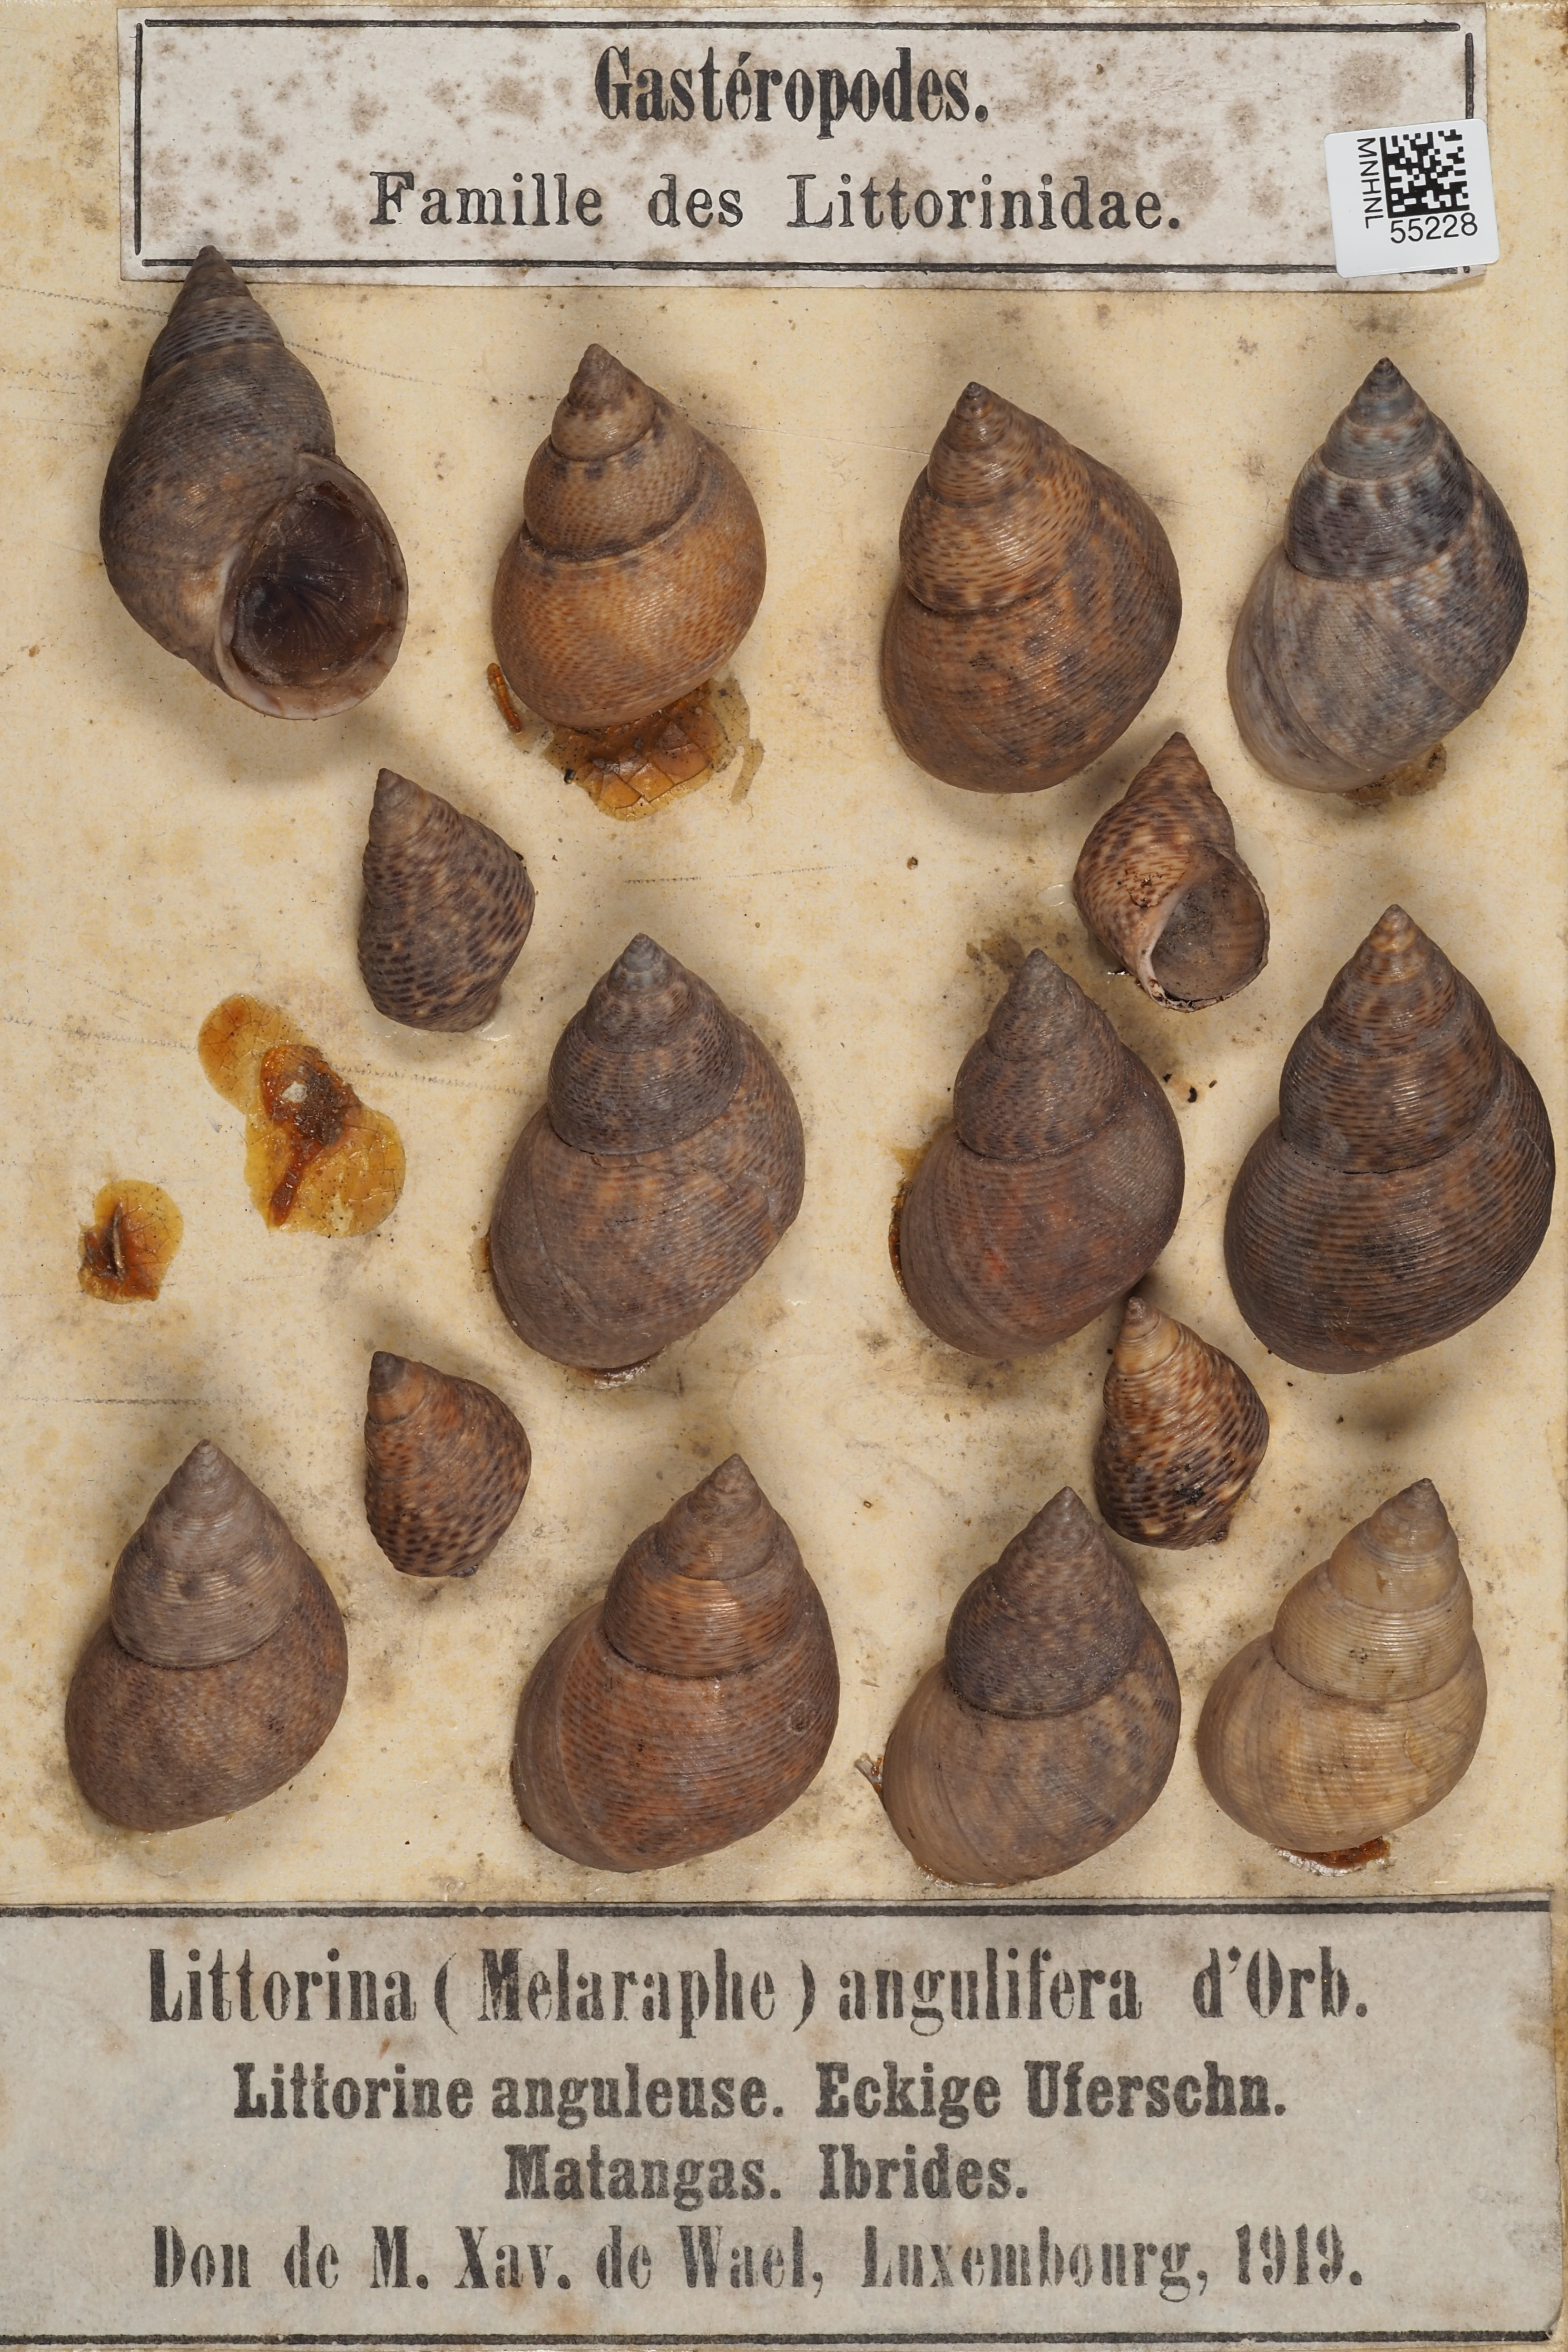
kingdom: Animalia
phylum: Mollusca
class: Gastropoda
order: Littorinimorpha
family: Littorinidae
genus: Littoraria
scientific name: Littoraria angulifera
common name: Mangrove periwinkle
